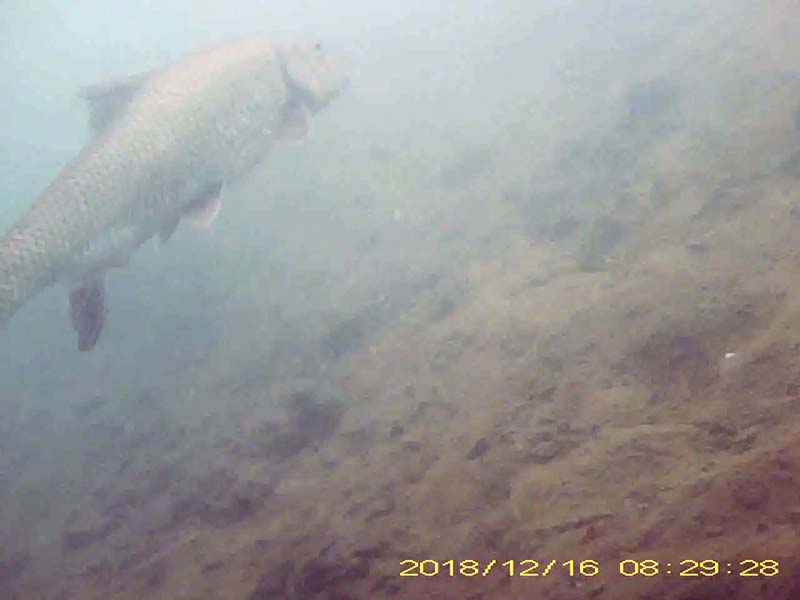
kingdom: Animalia
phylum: Chordata
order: Cypriniformes
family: Cyprinidae
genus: Hemibarbus
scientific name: Hemibarbus labeo
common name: ニゴイ
